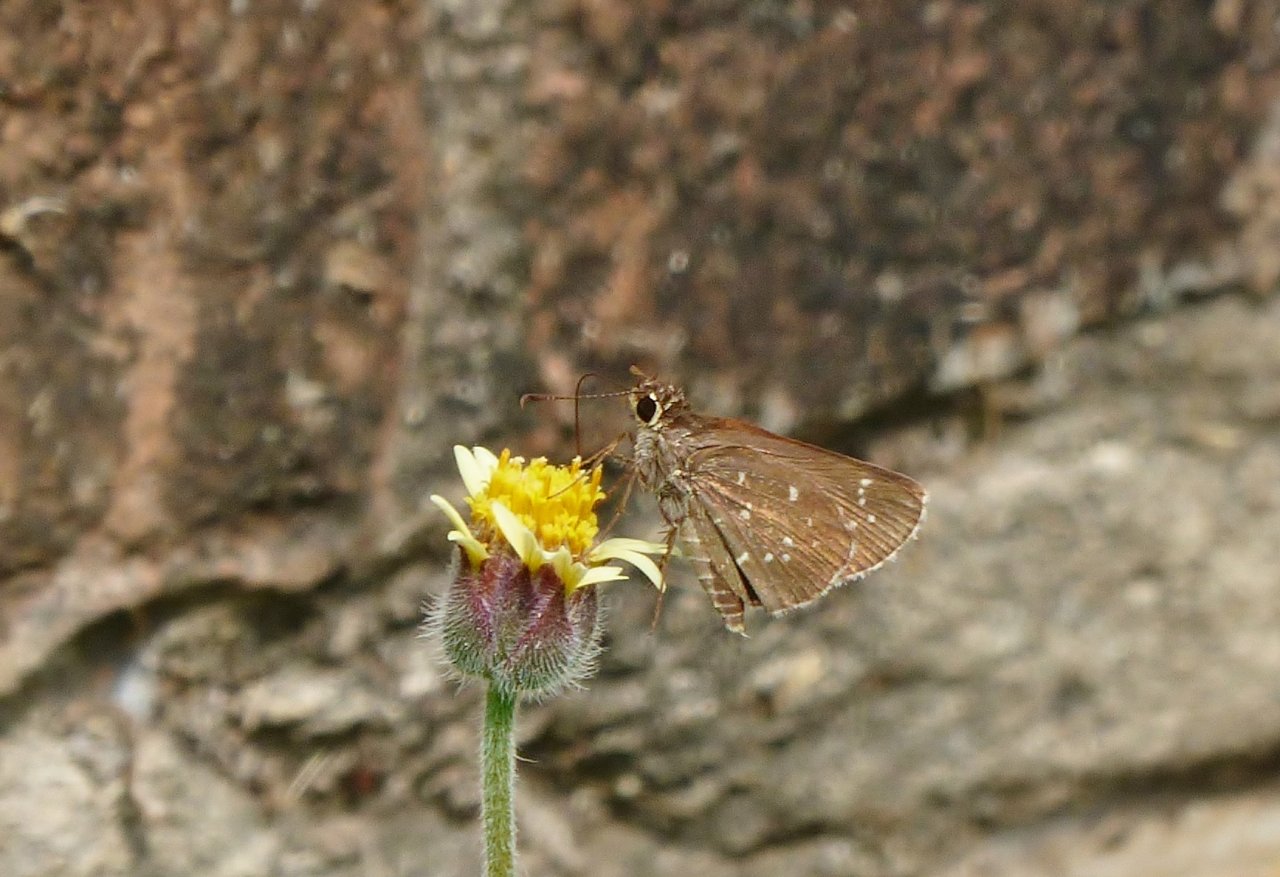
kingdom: Animalia
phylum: Arthropoda
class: Insecta
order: Lepidoptera
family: Hesperiidae
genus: Mastor
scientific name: Mastor celia
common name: Celia's Roadside-Skipper
